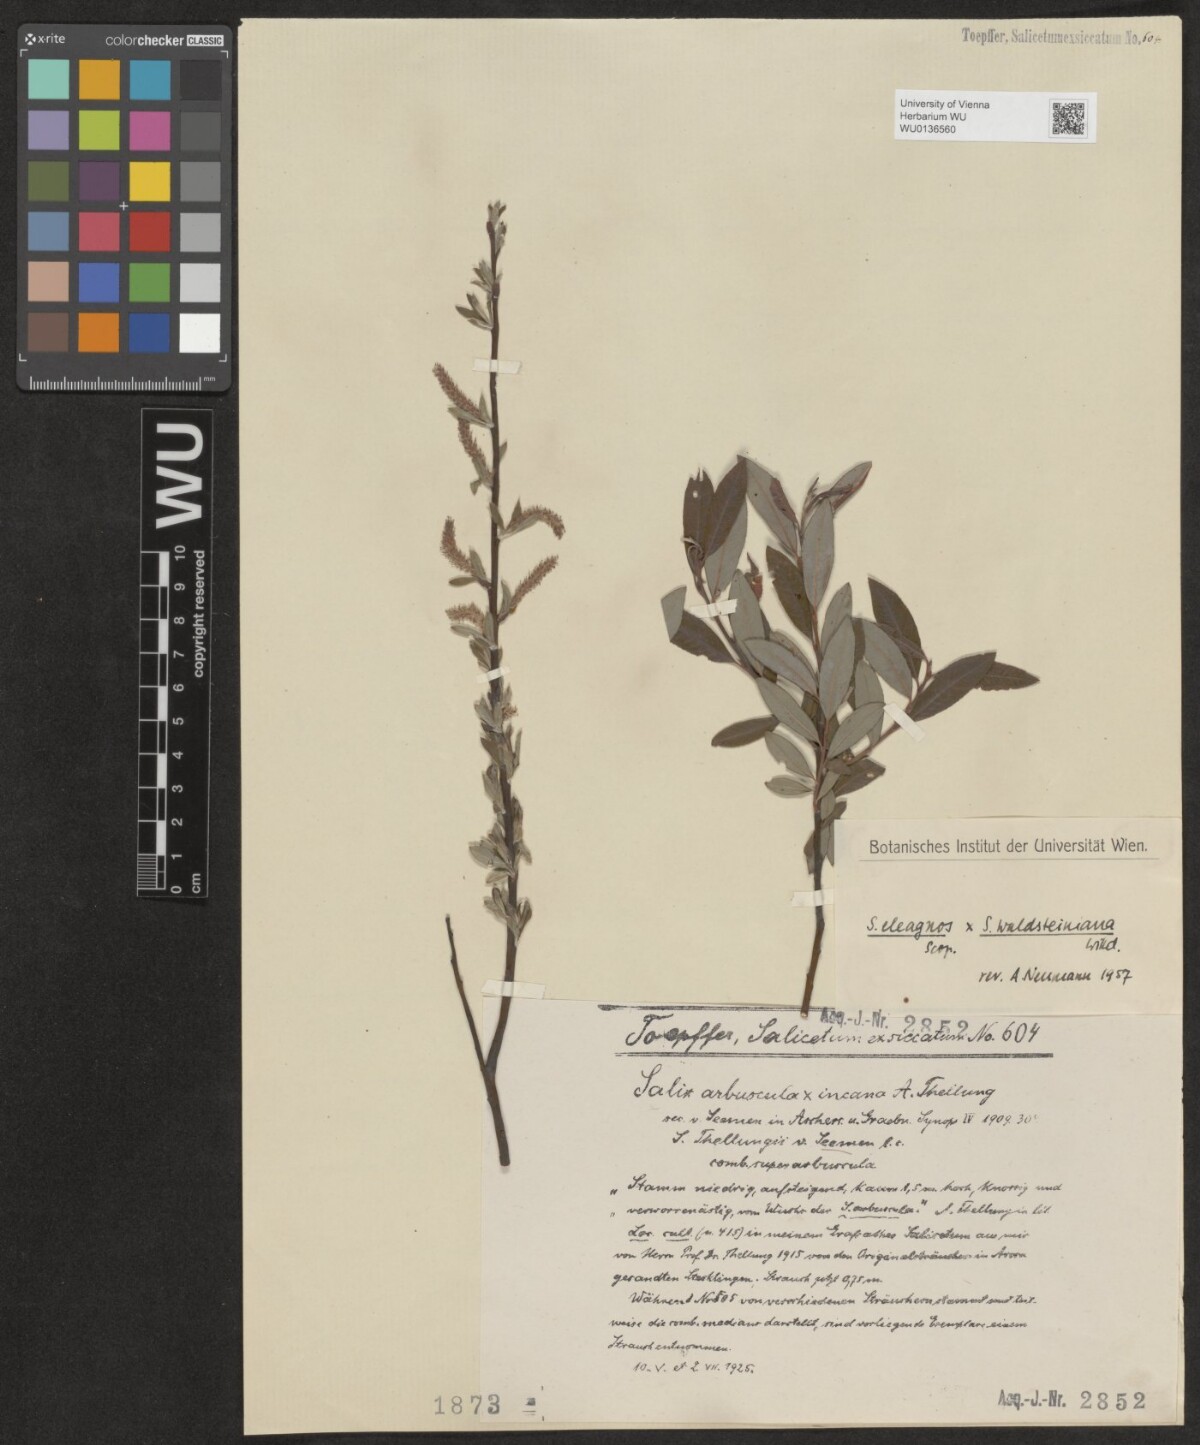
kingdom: Plantae
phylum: Tracheophyta
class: Magnoliopsida
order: Malpighiales
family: Salicaceae
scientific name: Salicaceae
